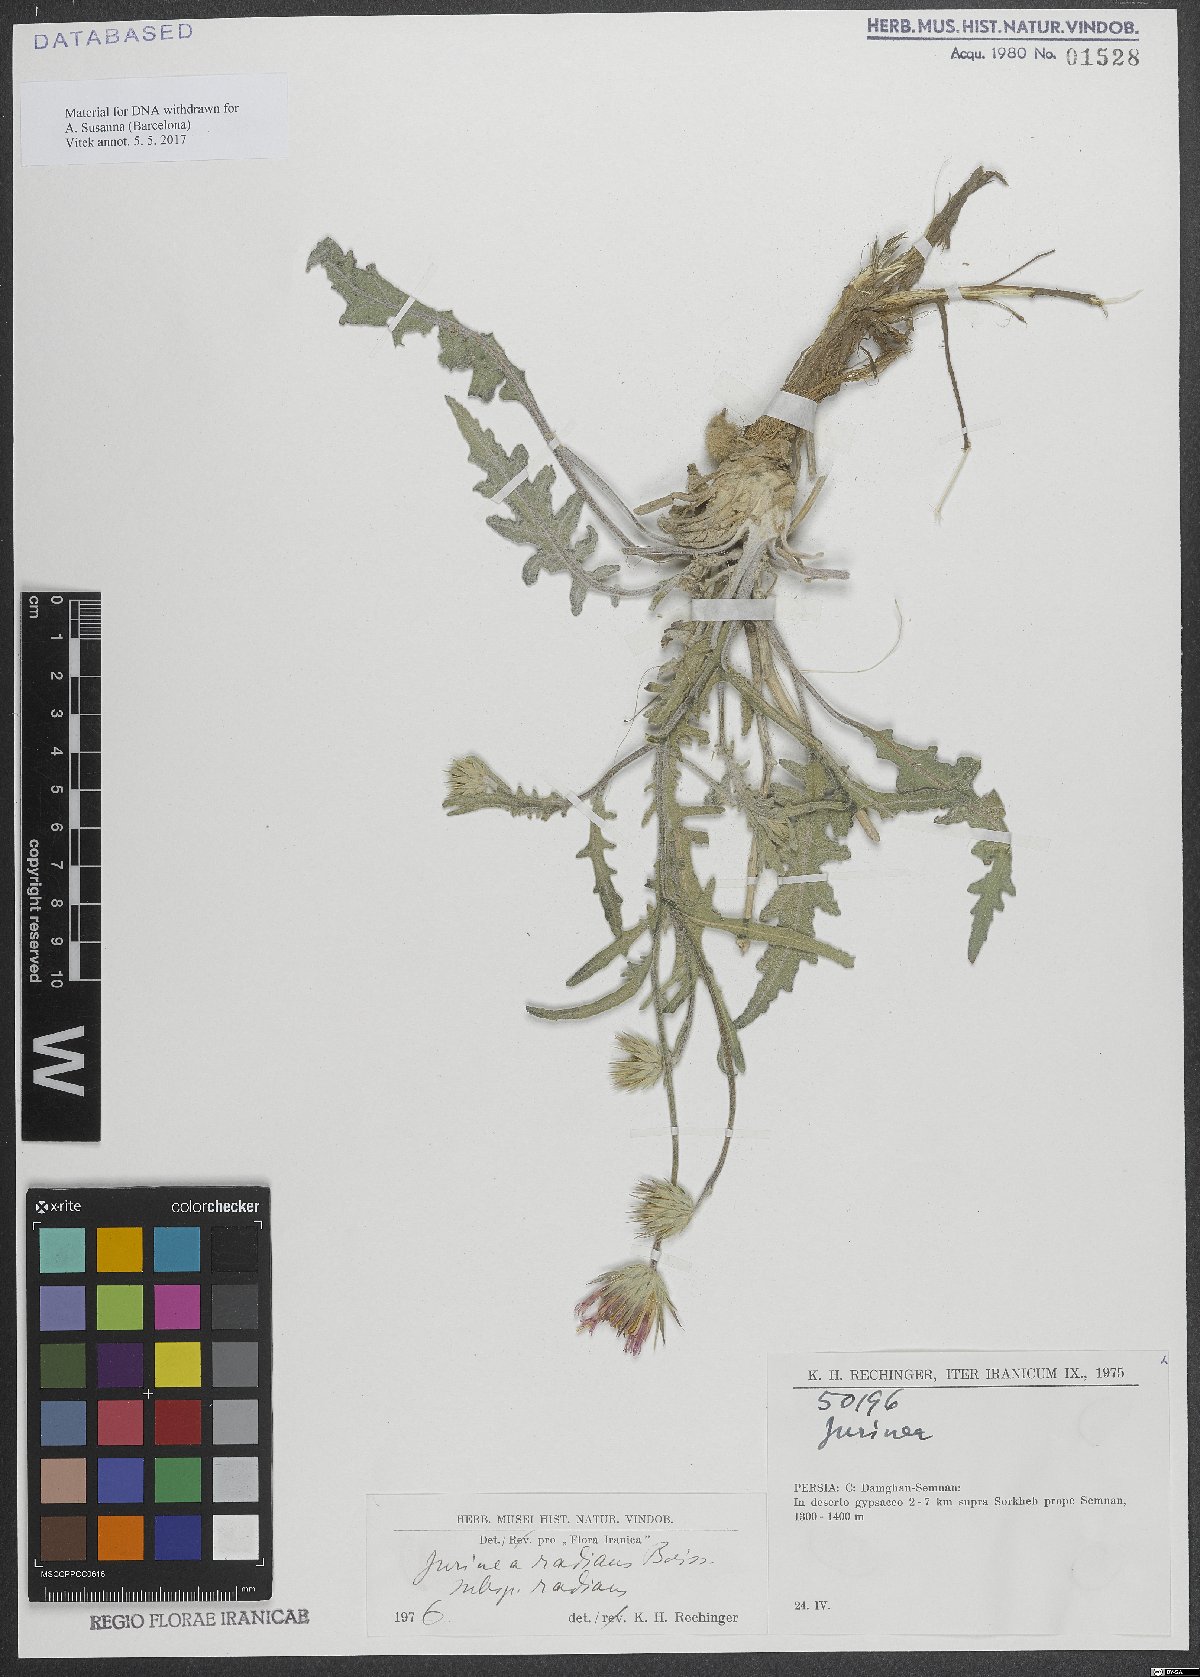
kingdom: Plantae
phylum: Tracheophyta
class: Magnoliopsida
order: Asterales
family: Asteraceae
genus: Jurinea
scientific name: Jurinea radians
